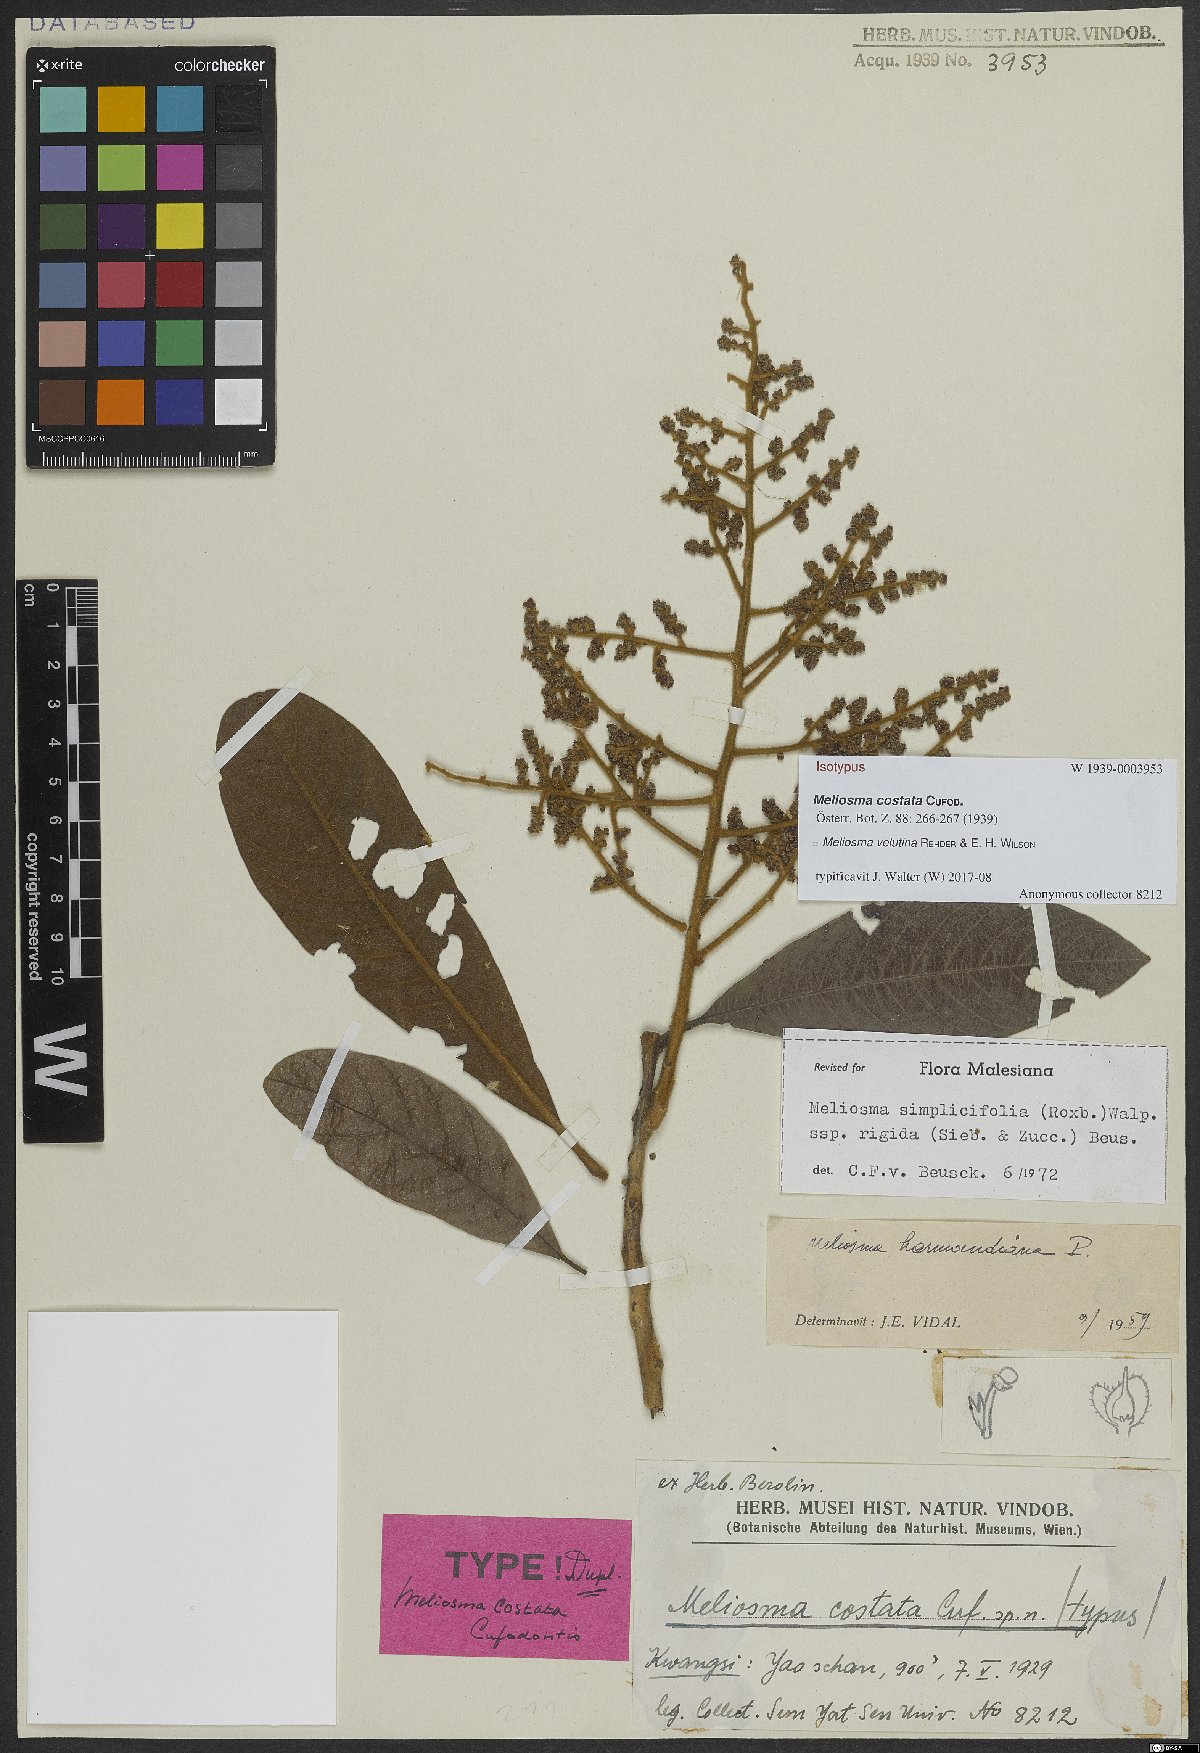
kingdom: Plantae
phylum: Tracheophyta
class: Magnoliopsida
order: Proteales
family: Sabiaceae
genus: Meliosma
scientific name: Meliosma velutina
